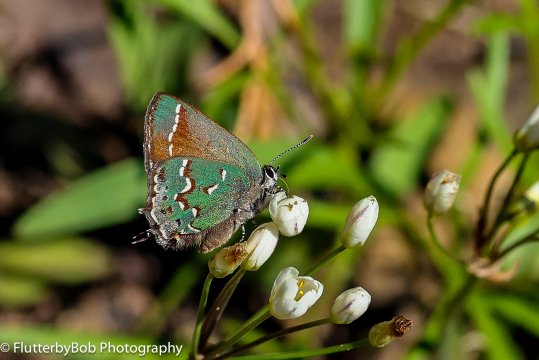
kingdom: Animalia
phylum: Arthropoda
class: Insecta
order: Lepidoptera
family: Lycaenidae
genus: Mitoura
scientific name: Mitoura gryneus
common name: Juniper Hairstreak
